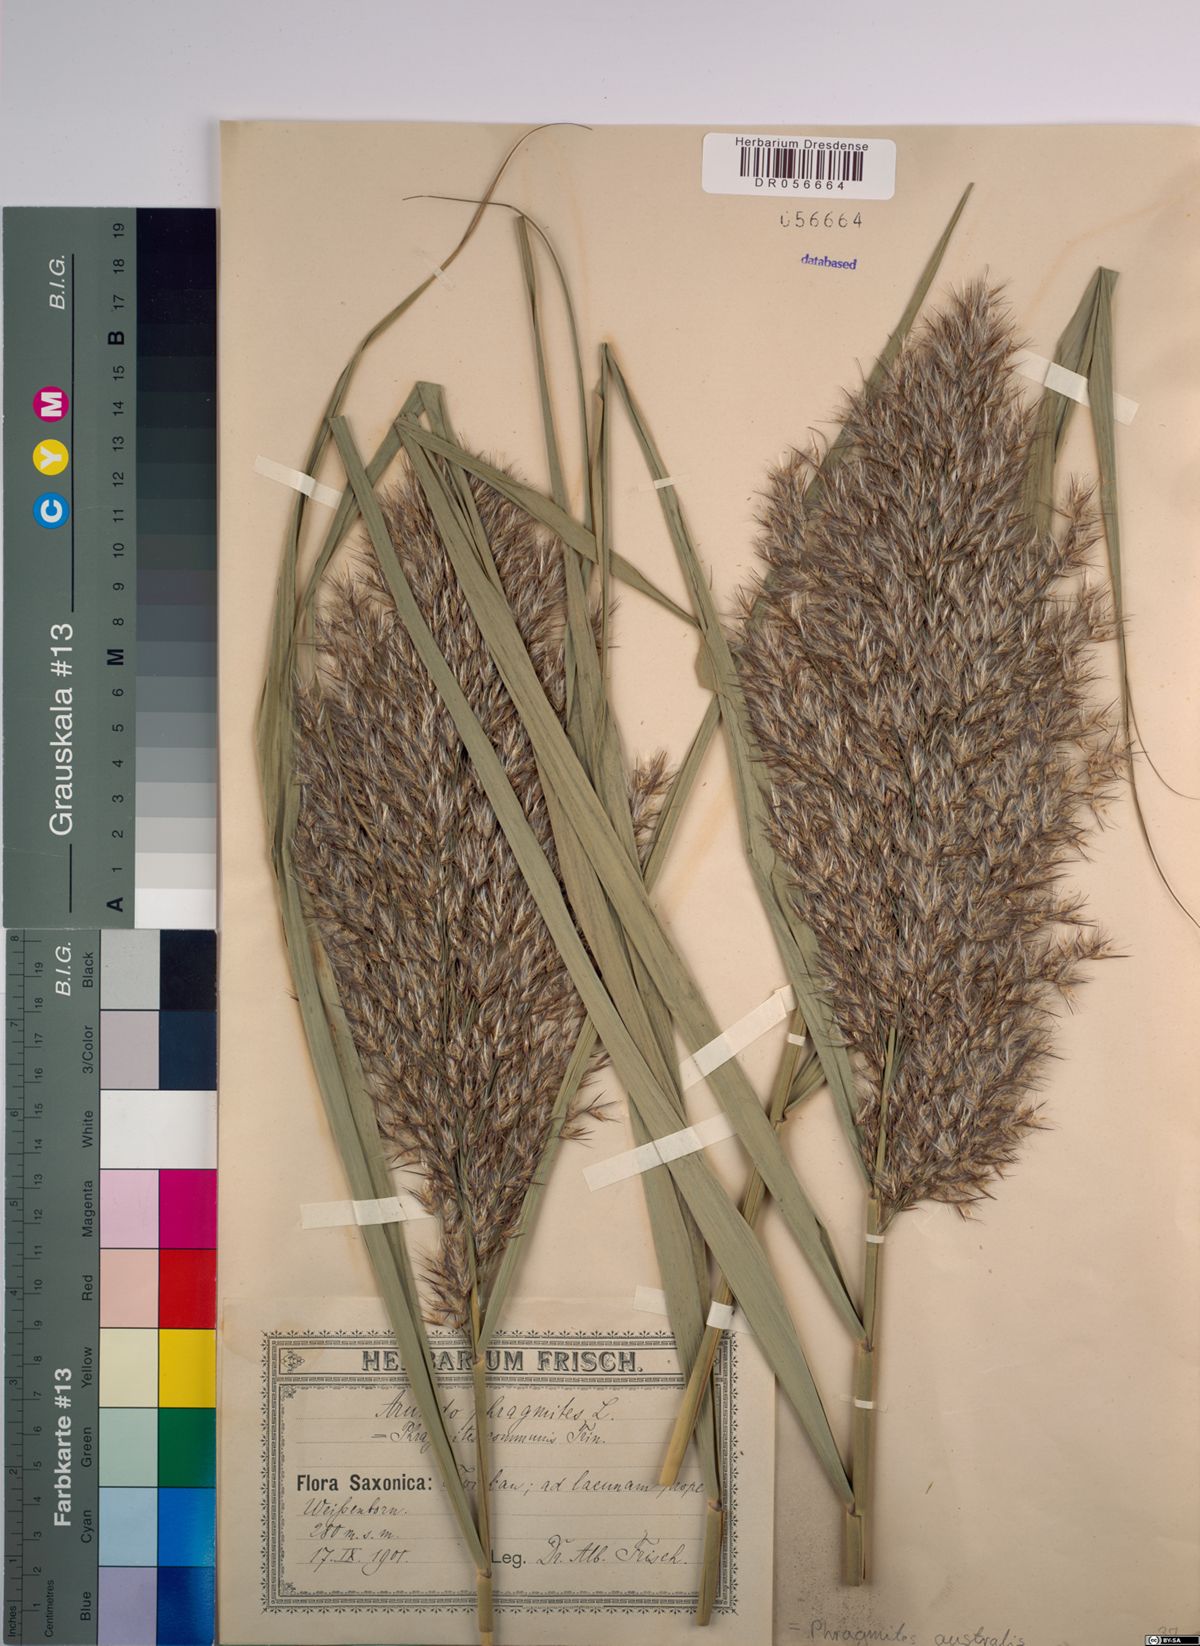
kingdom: Plantae
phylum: Tracheophyta
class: Liliopsida
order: Poales
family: Poaceae
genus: Phragmites
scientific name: Phragmites australis
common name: Common reed
